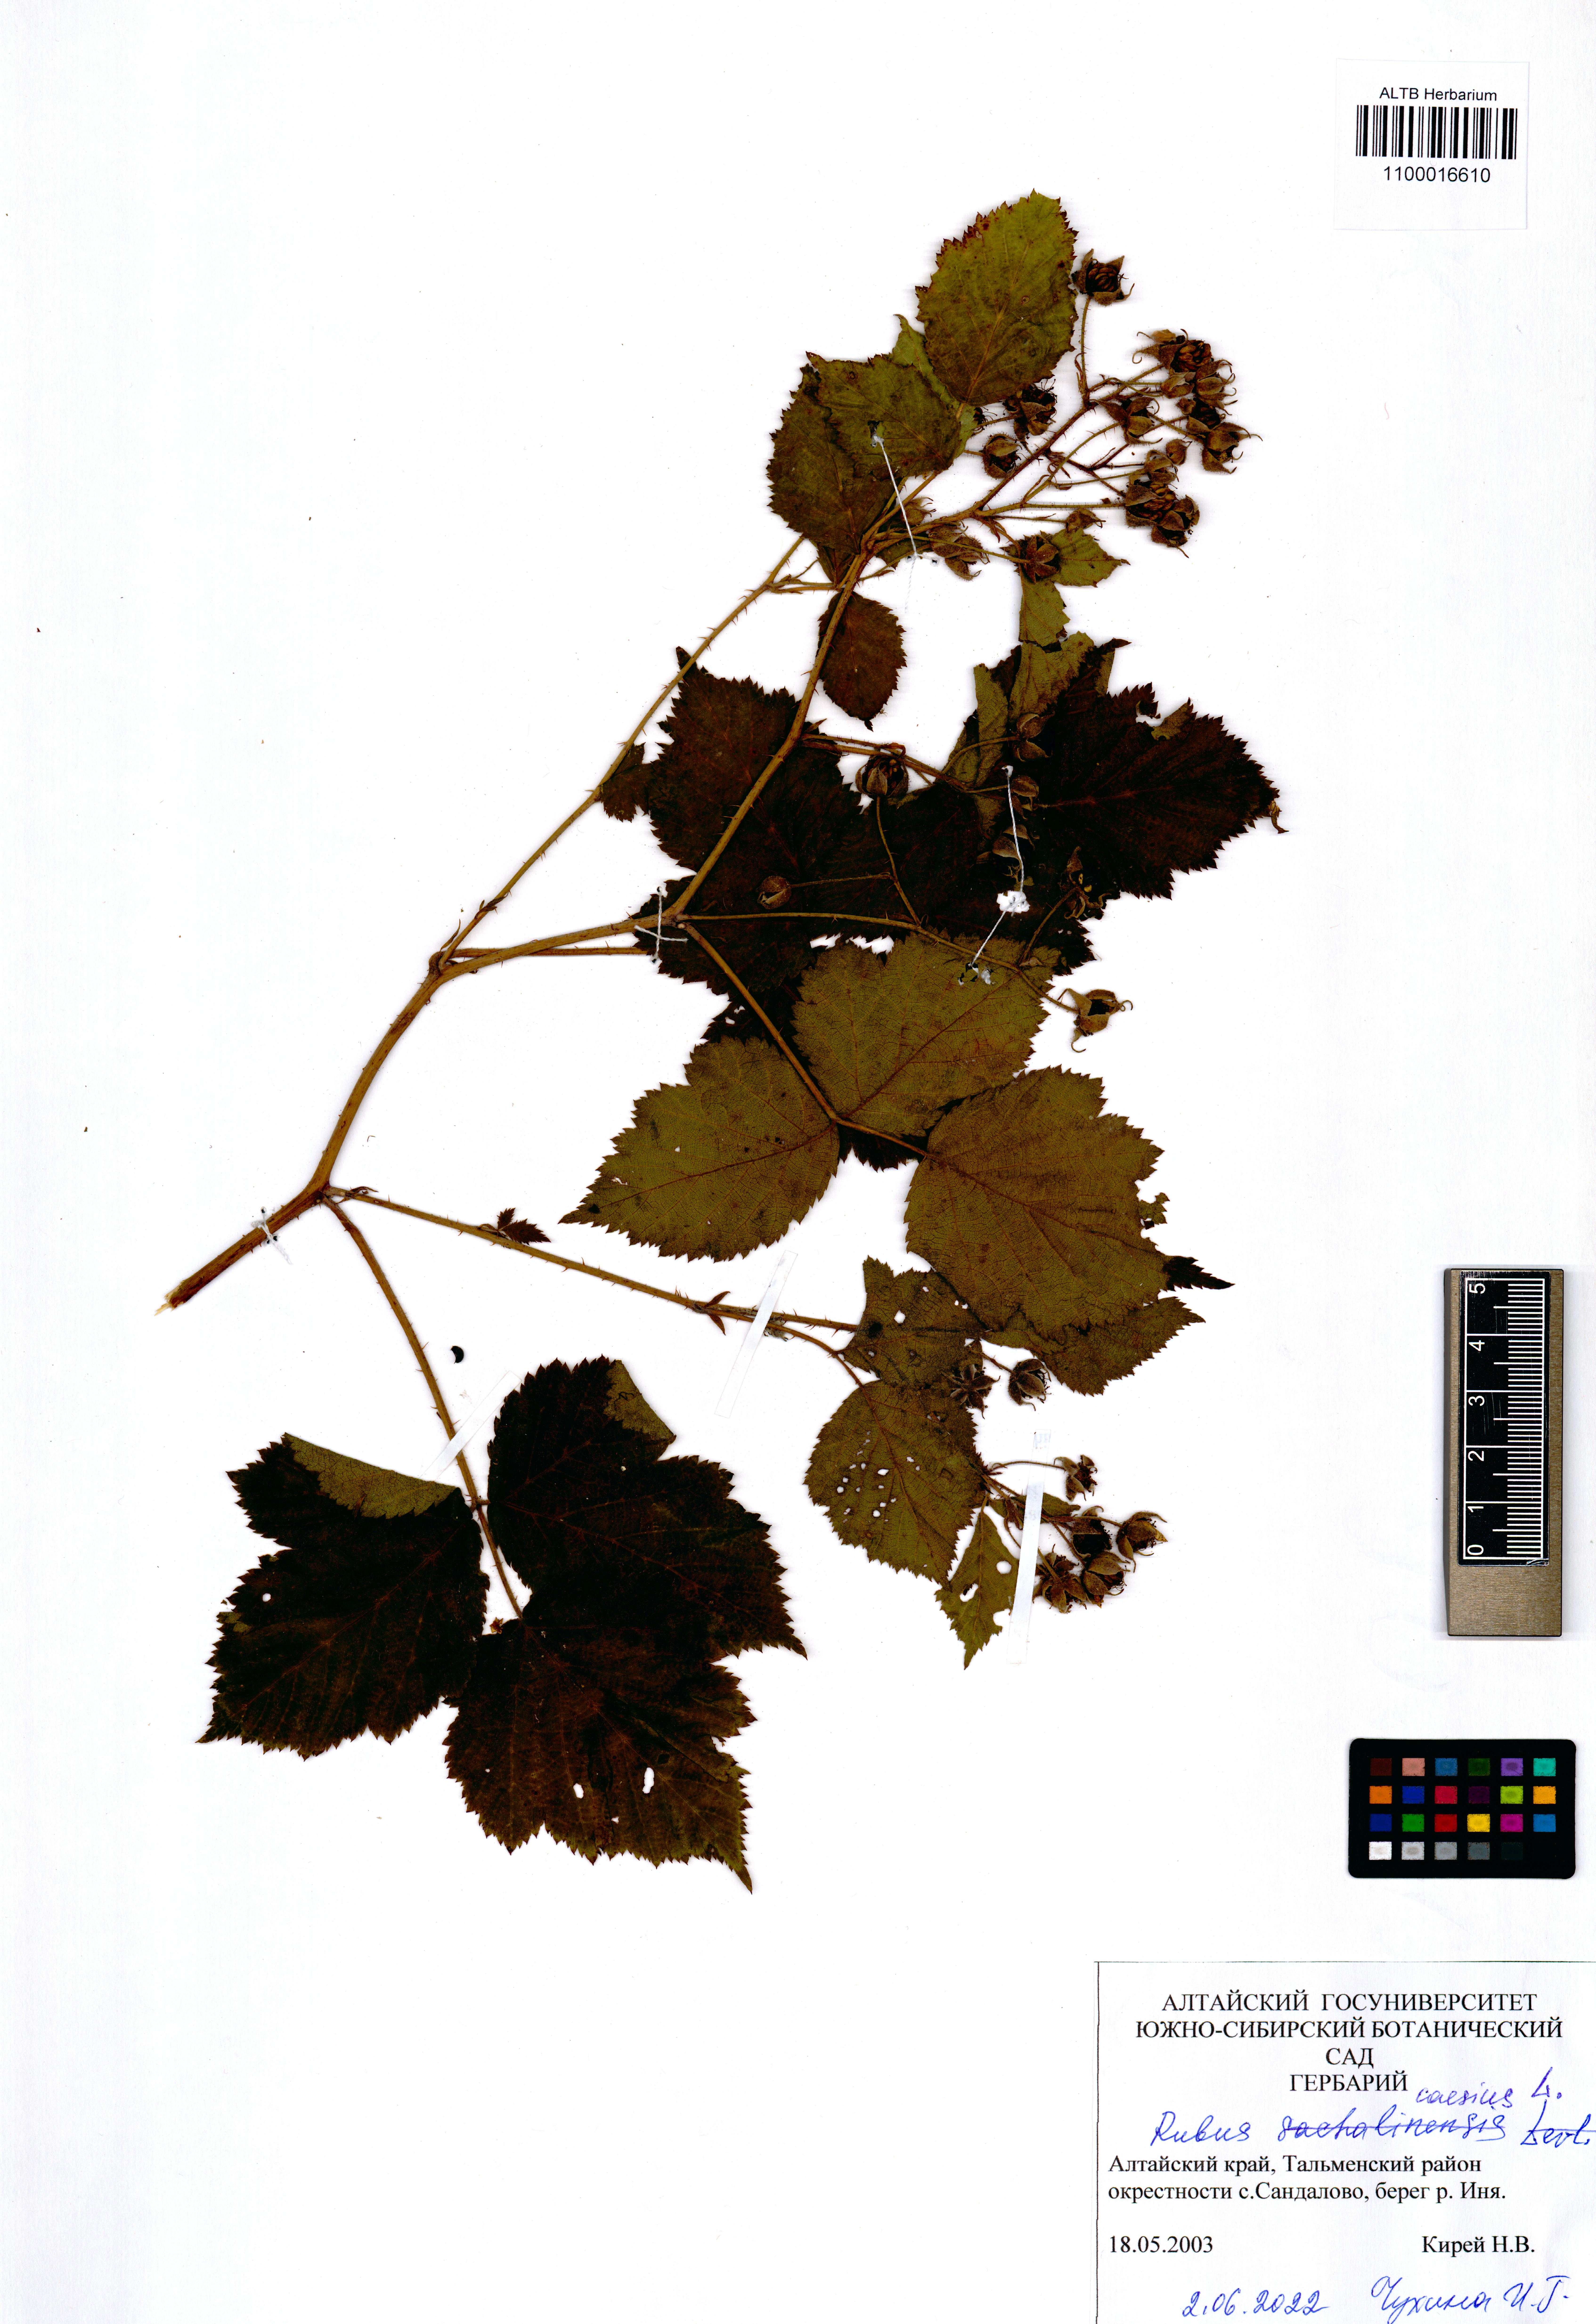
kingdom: Plantae
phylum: Tracheophyta
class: Magnoliopsida
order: Rosales
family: Rosaceae
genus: Rubus
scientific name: Rubus caesius
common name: Dewberry
